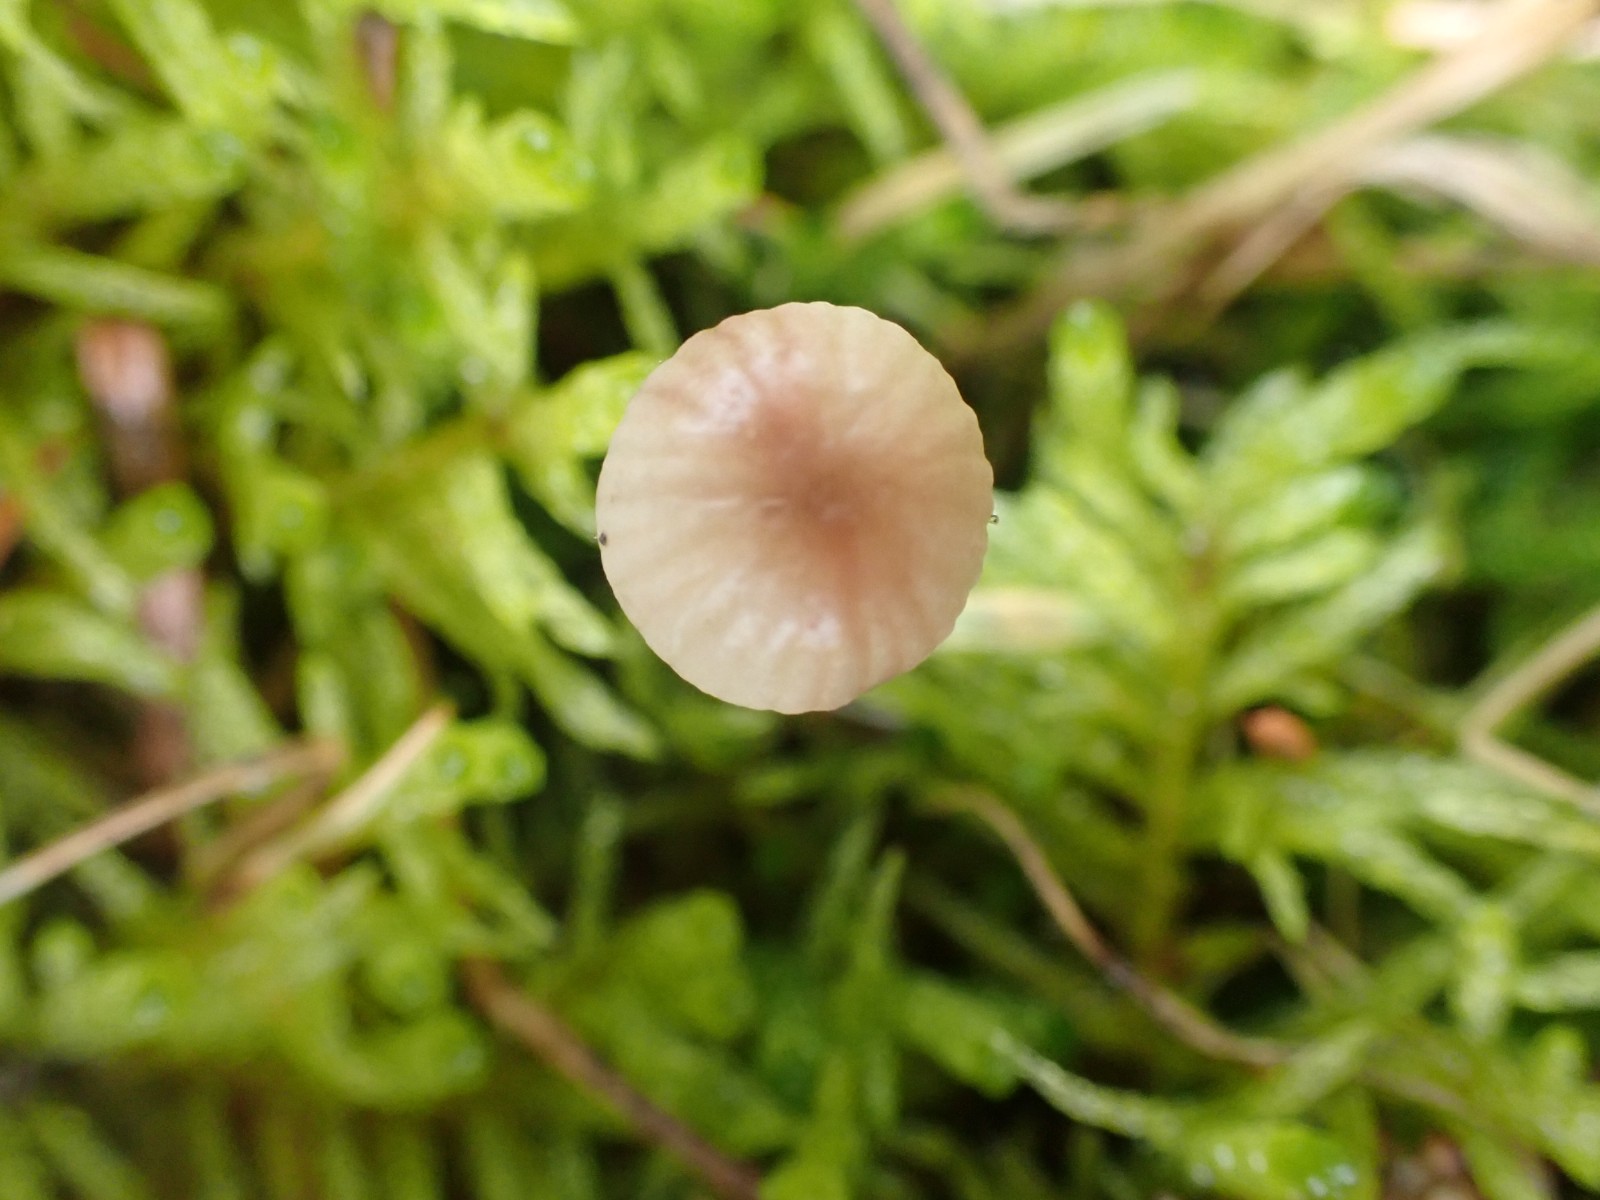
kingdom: Fungi
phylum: Basidiomycota
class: Agaricomycetes
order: Agaricales
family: Mycenaceae
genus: Mycena
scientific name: Mycena sanguinolenta
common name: rødmælket huesvamp
